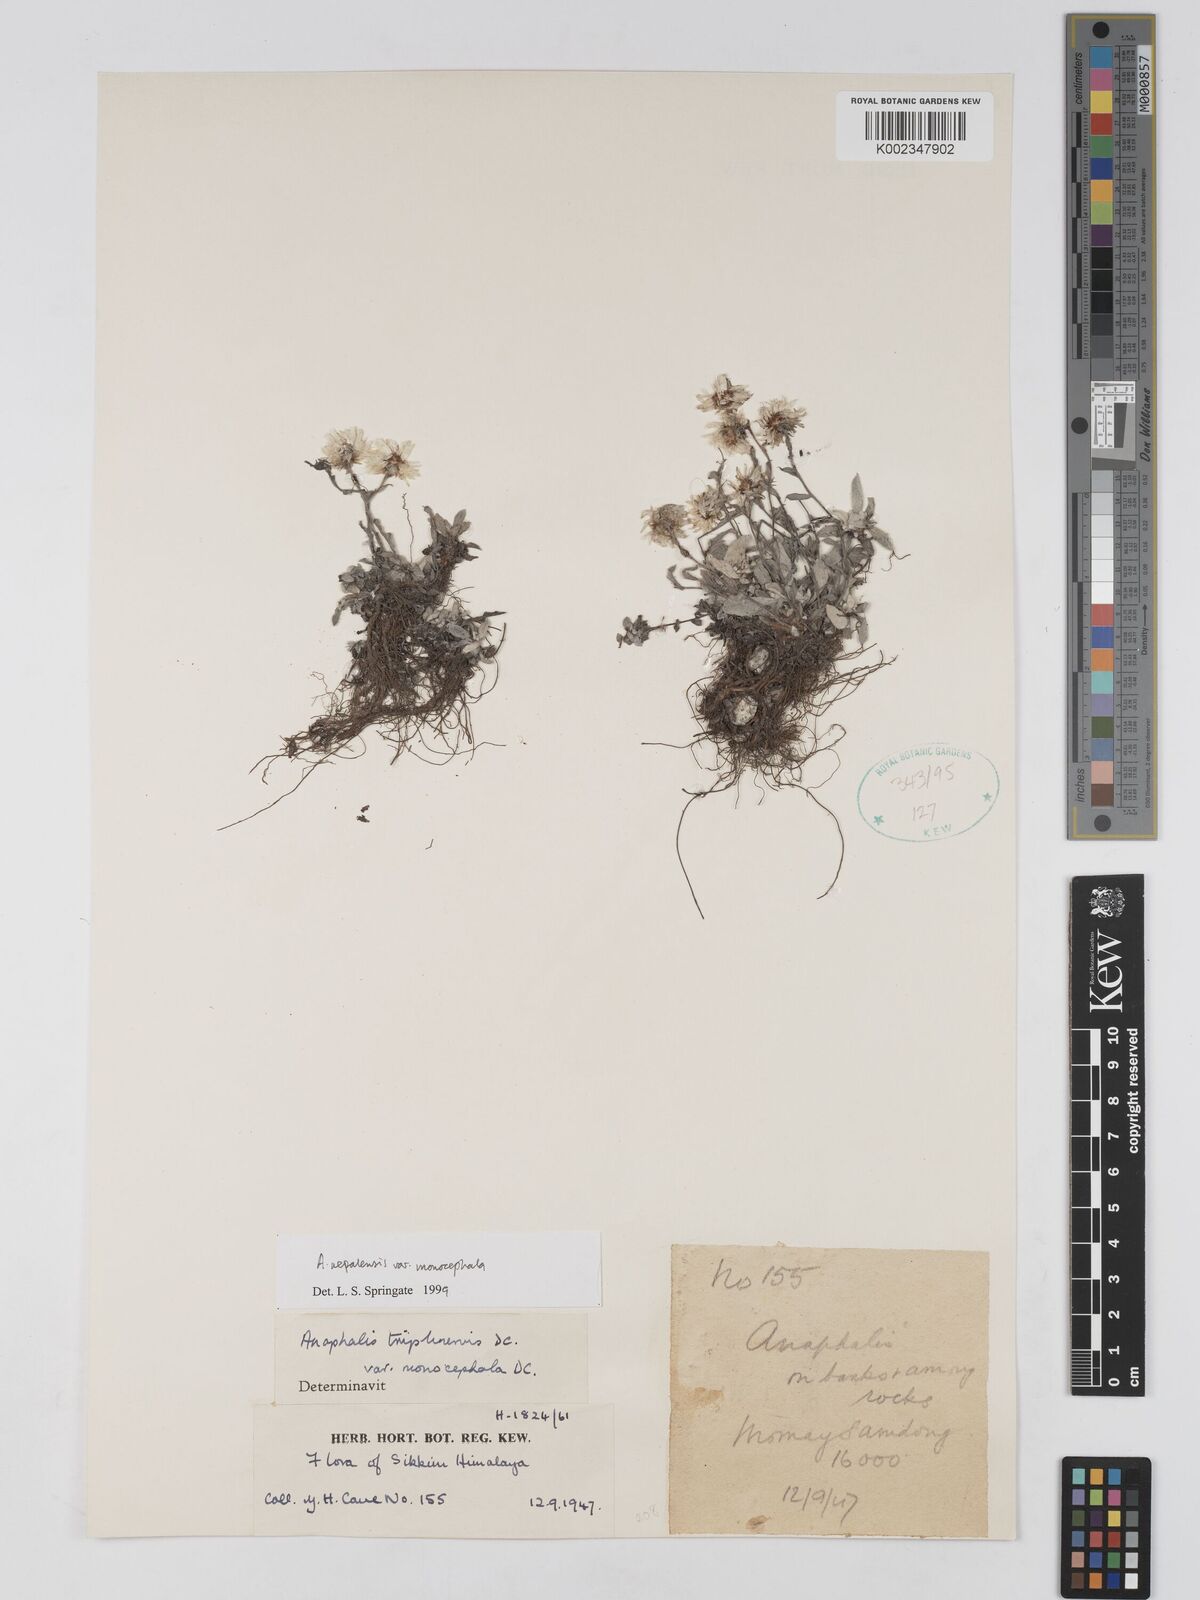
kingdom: Plantae
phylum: Tracheophyta
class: Magnoliopsida
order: Asterales
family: Asteraceae
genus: Anaphalis
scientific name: Anaphalis nepalensis
